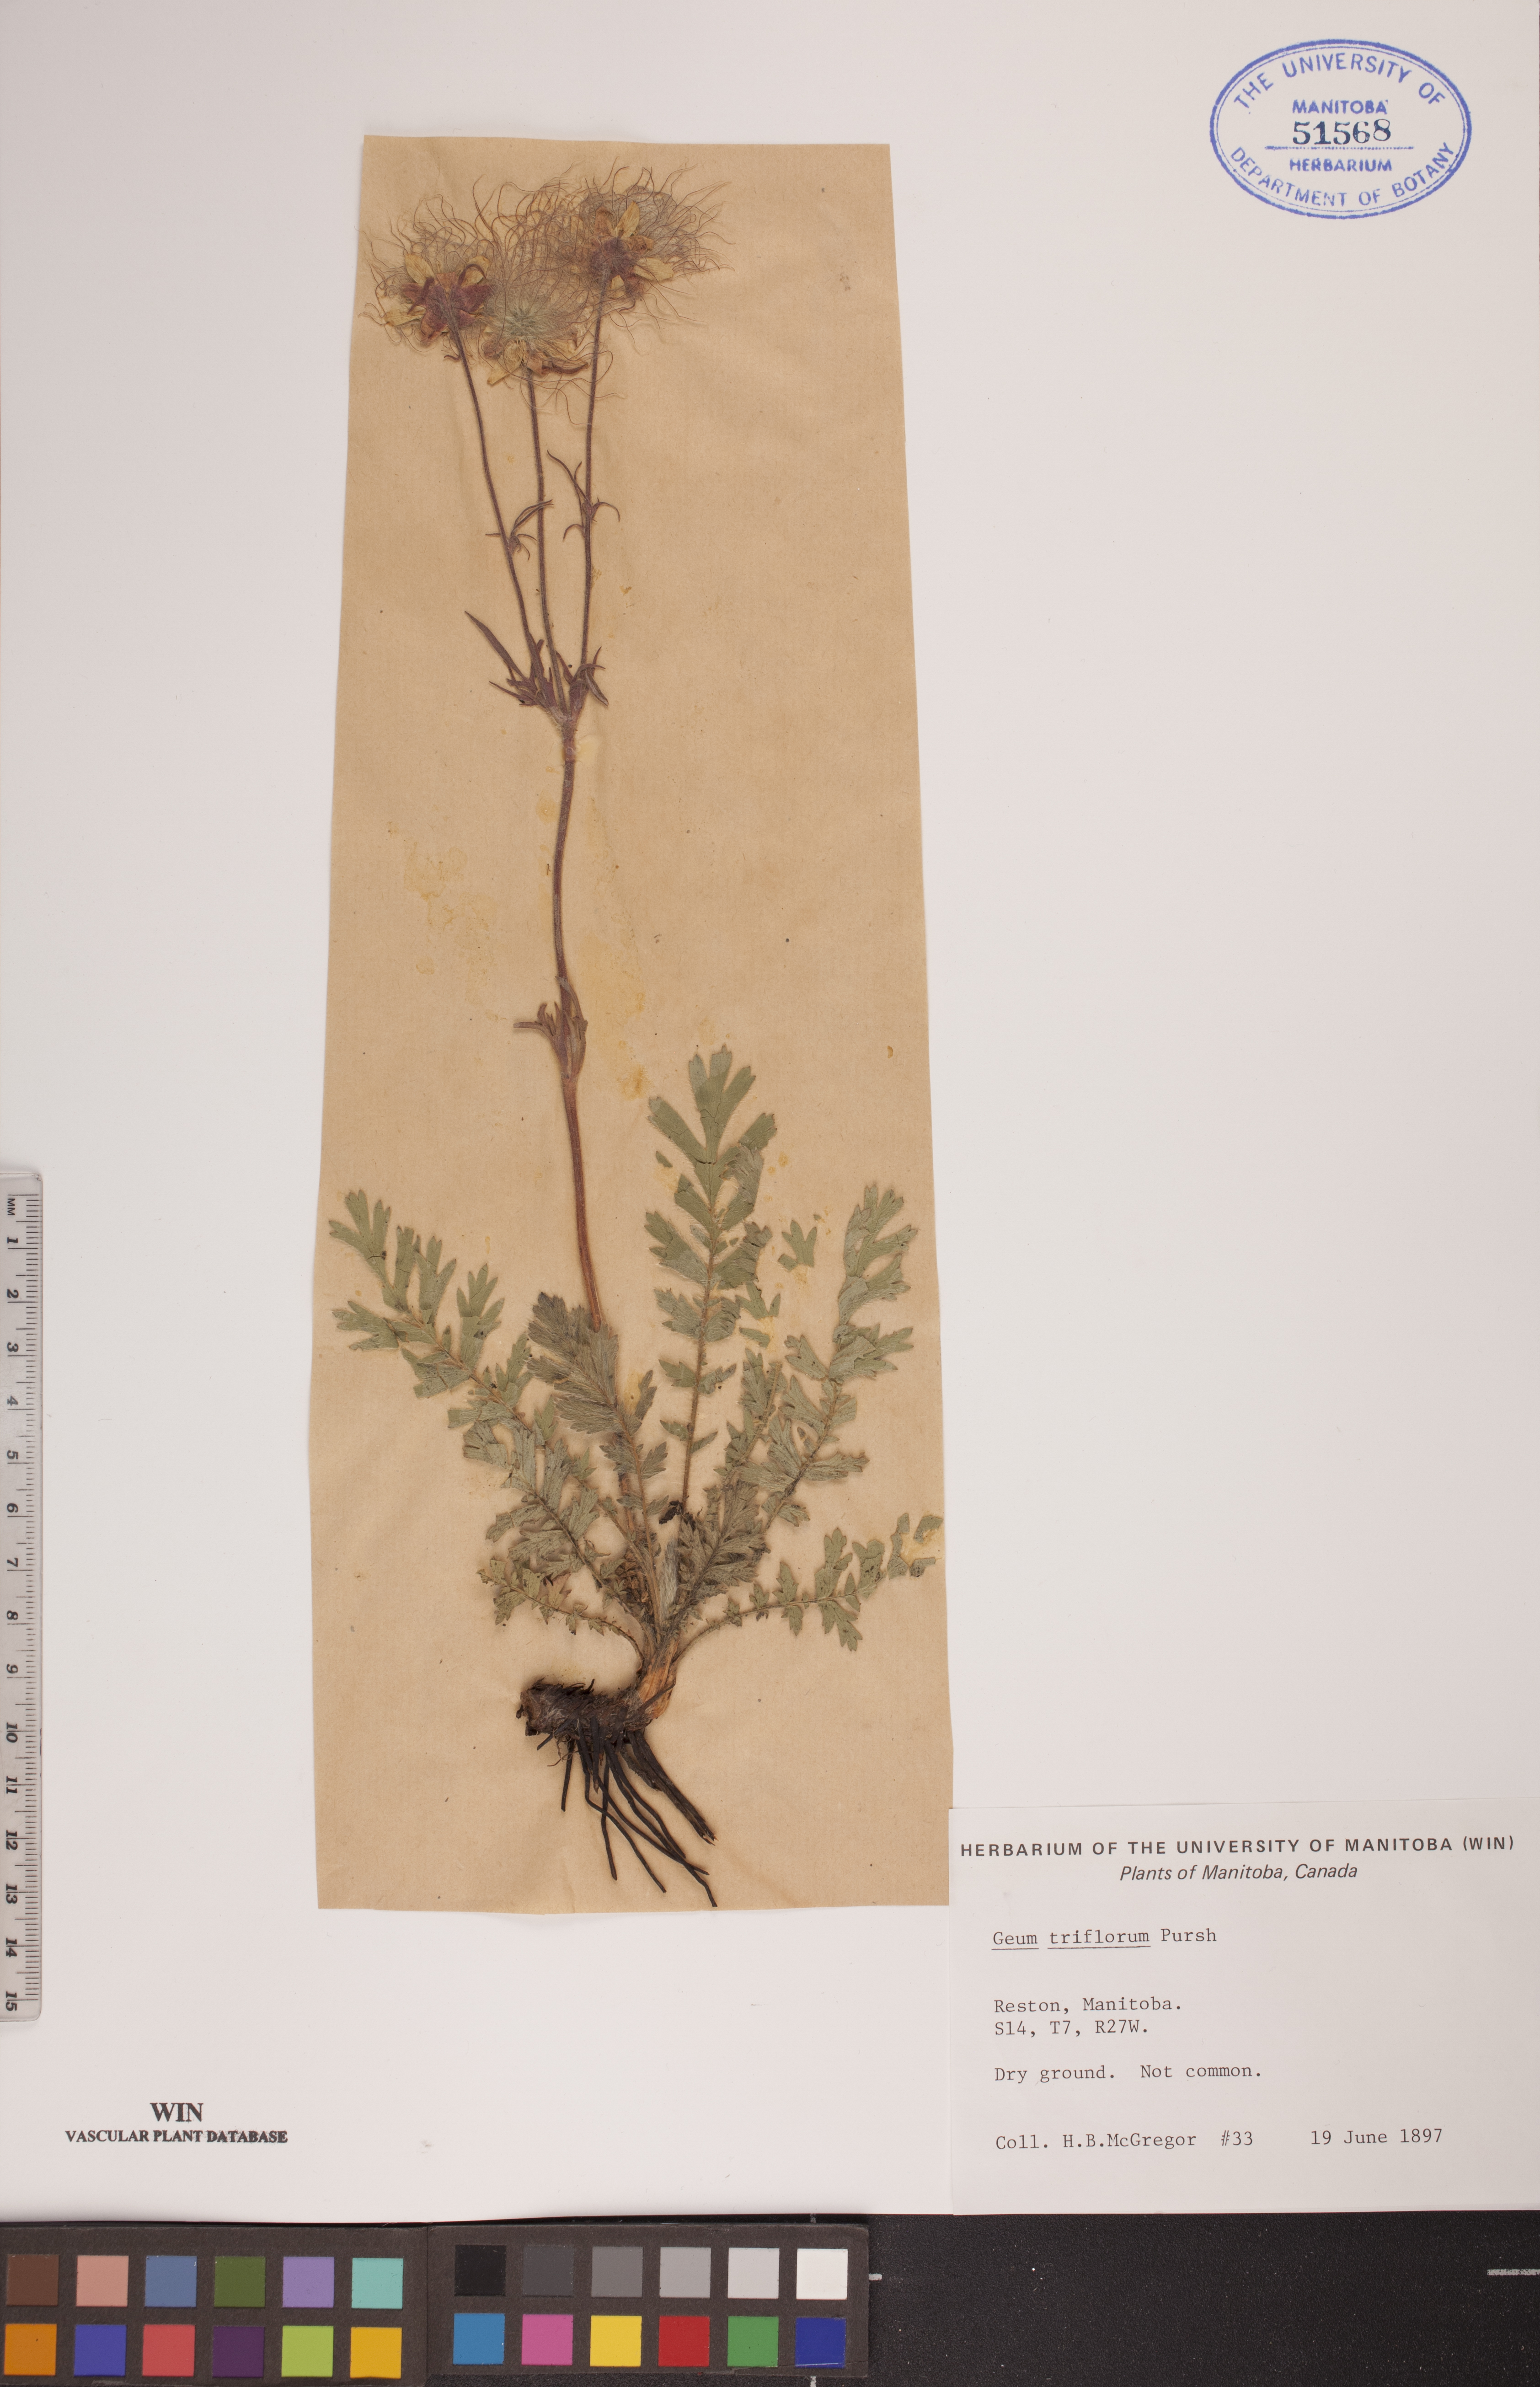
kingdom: Plantae
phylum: Tracheophyta
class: Magnoliopsida
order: Rosales
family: Rosaceae
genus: Geum
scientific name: Geum triflorum
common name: Old man's whiskers
